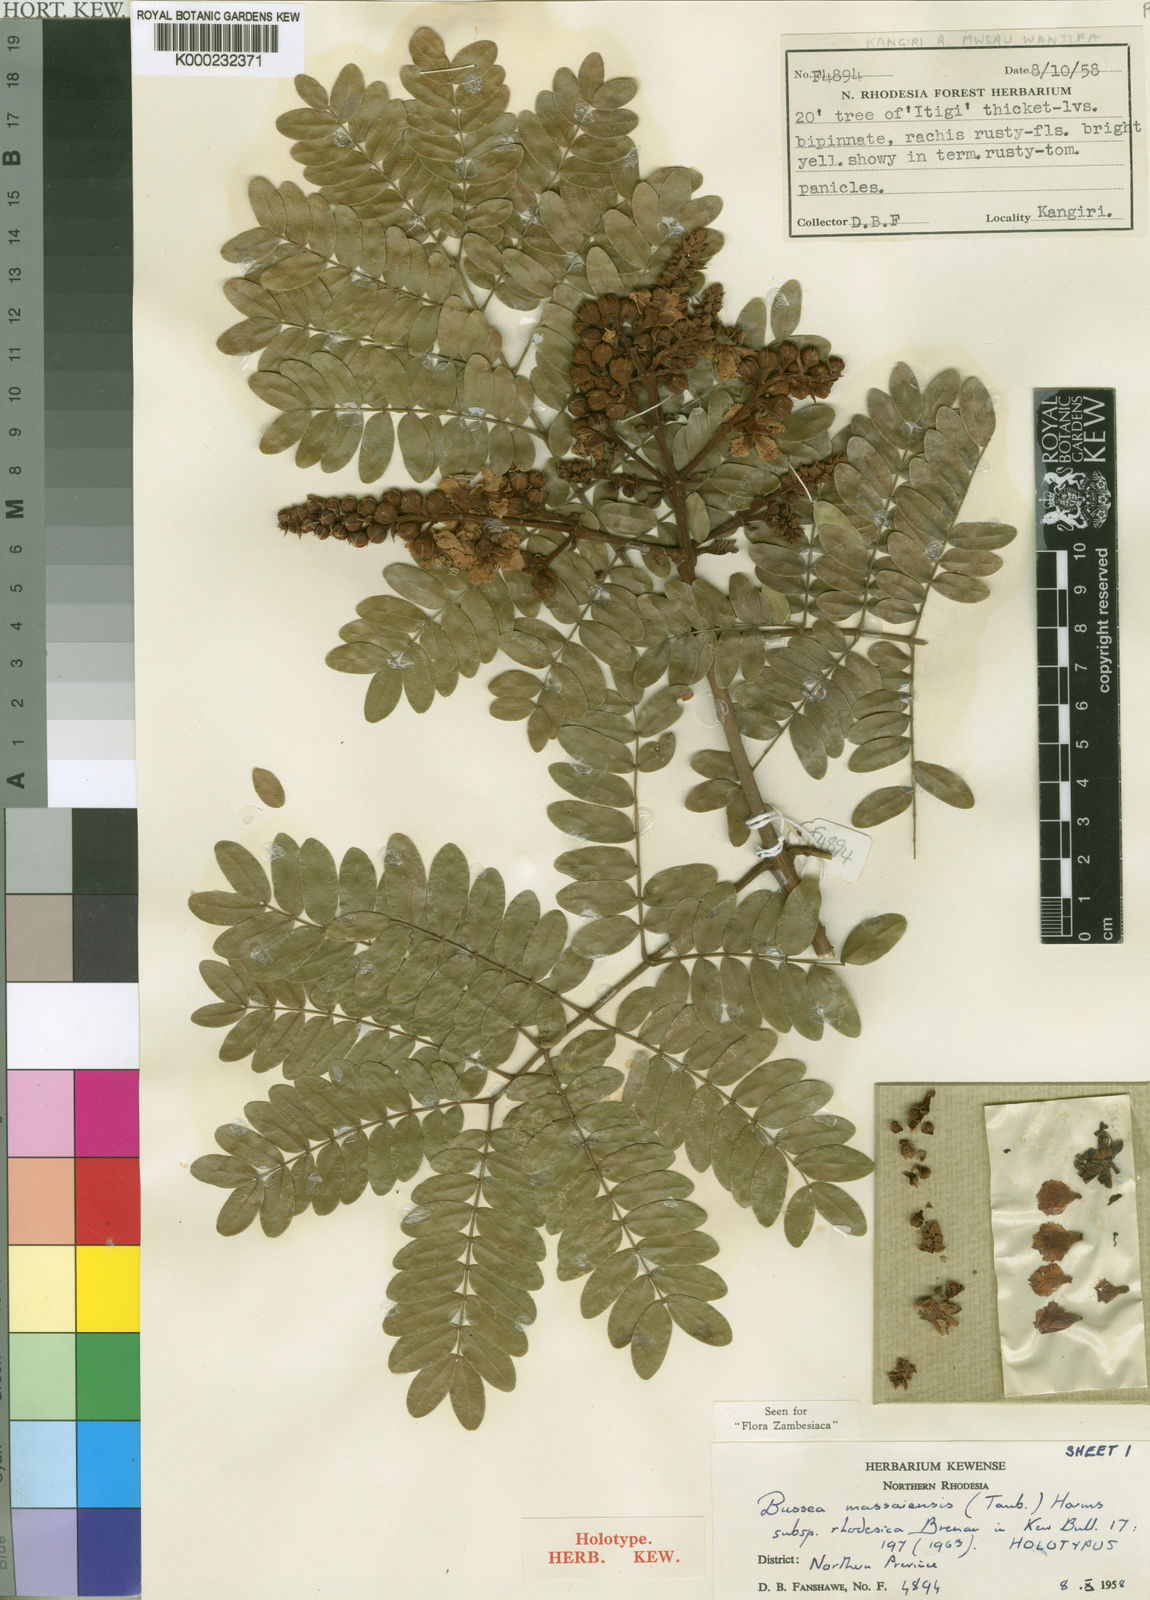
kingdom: Plantae
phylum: Tracheophyta
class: Magnoliopsida
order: Fabales
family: Fabaceae
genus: Bussea
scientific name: Bussea massaiensis
